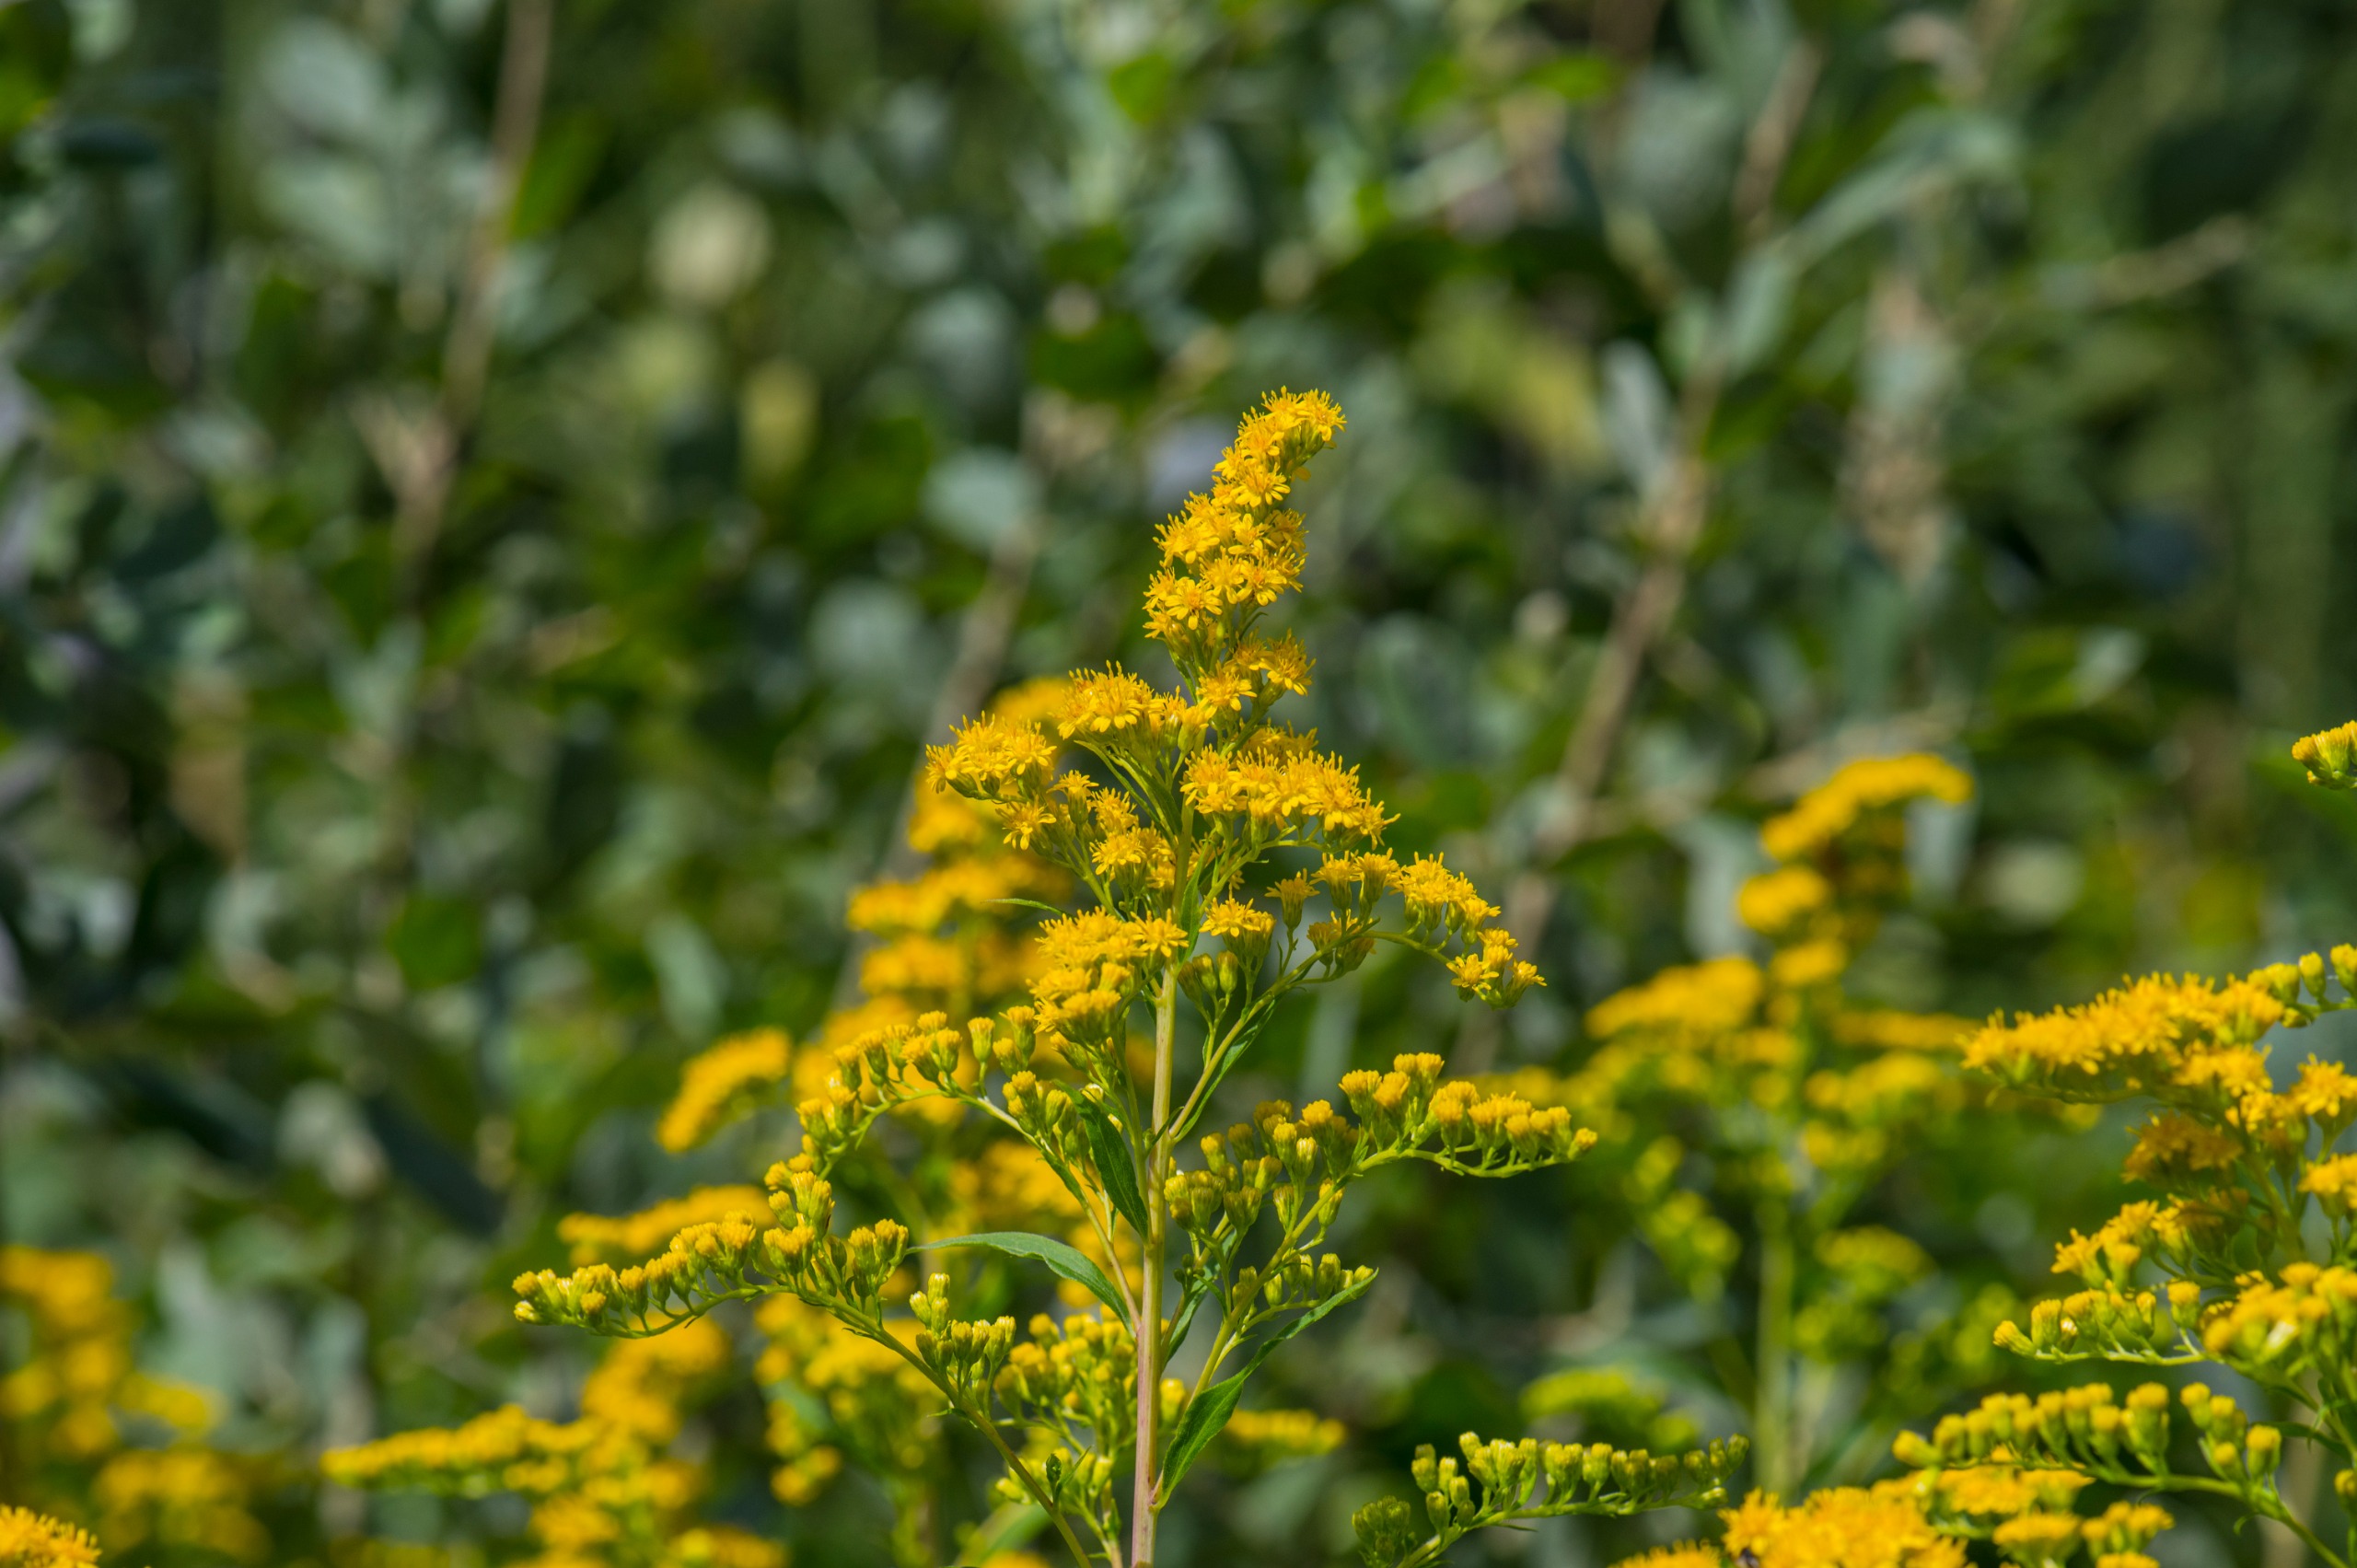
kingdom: Plantae
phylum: Tracheophyta
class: Magnoliopsida
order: Asterales
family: Asteraceae
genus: Solidago
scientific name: Solidago gigantea
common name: Sildig gyldenris
